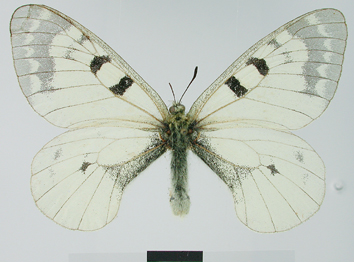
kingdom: Animalia
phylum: Arthropoda
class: Insecta
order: Lepidoptera
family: Papilionidae
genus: Parnassius
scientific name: Parnassius mnemosyne
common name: Clouded apollo
